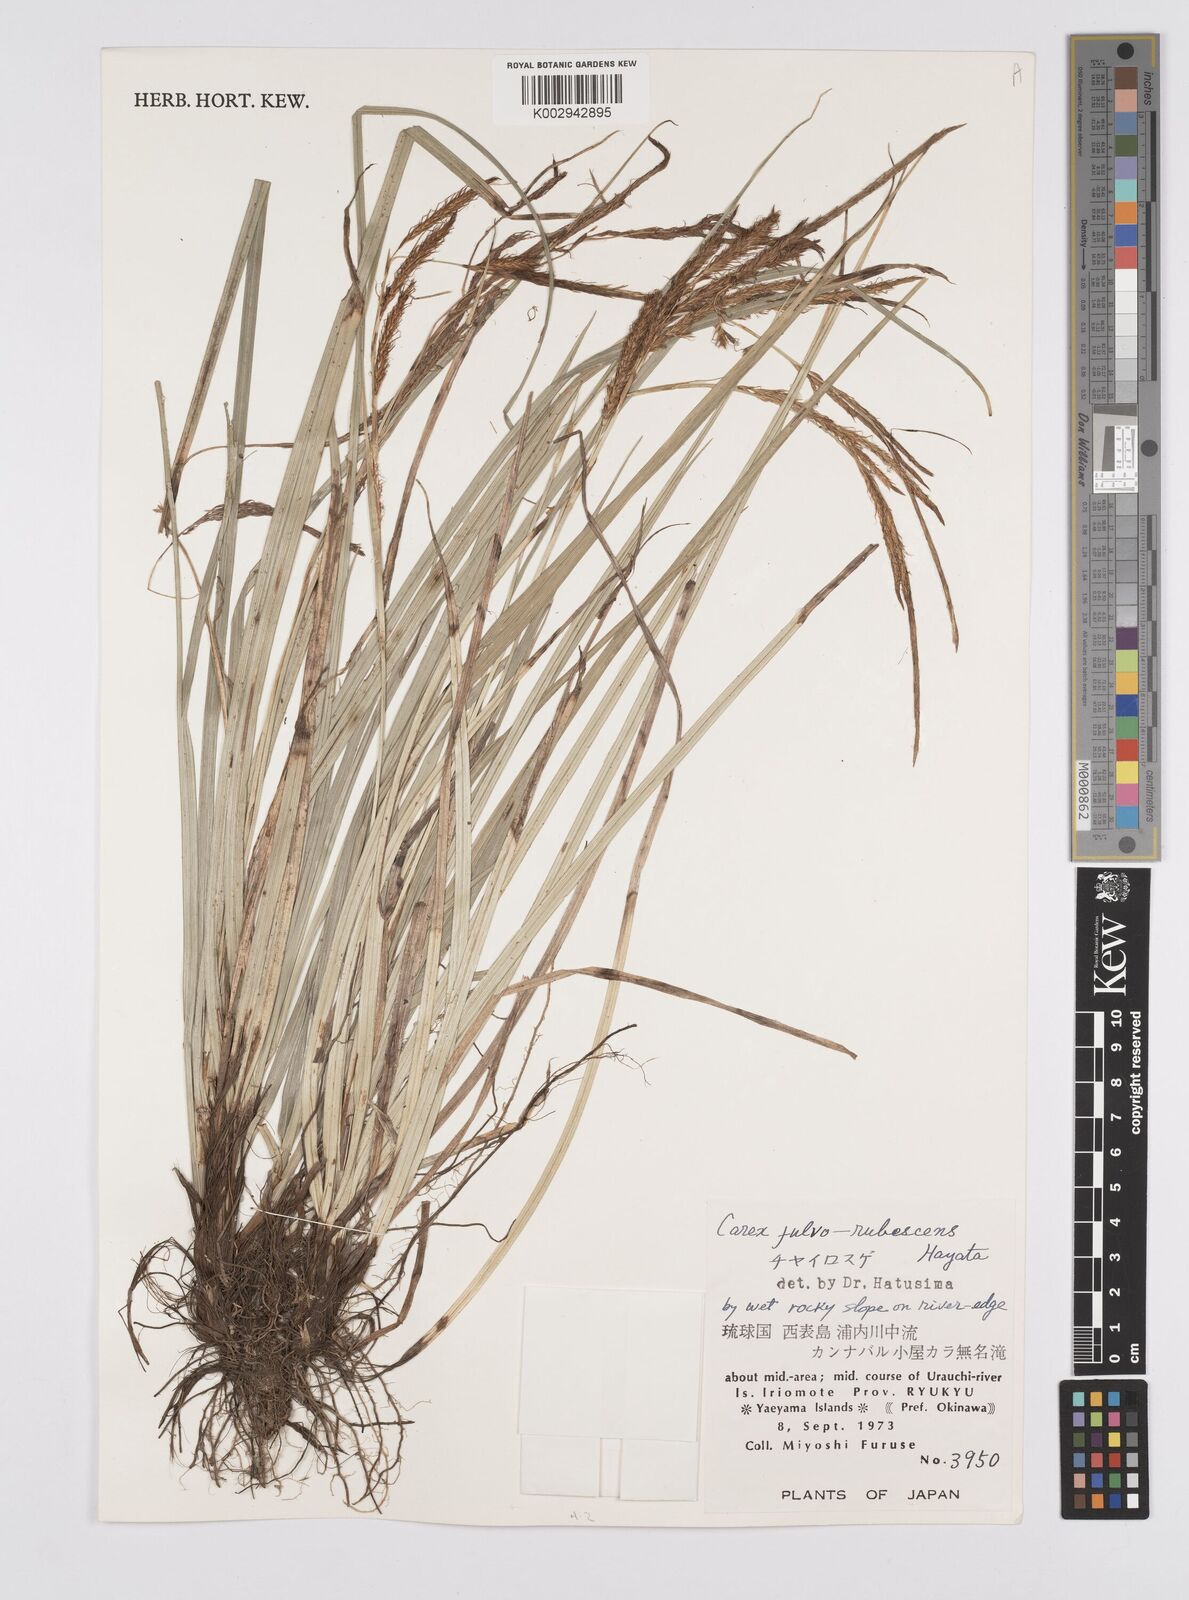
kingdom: Plantae
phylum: Tracheophyta
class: Liliopsida
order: Poales
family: Cyperaceae
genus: Carex
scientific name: Carex fulvorubescens
